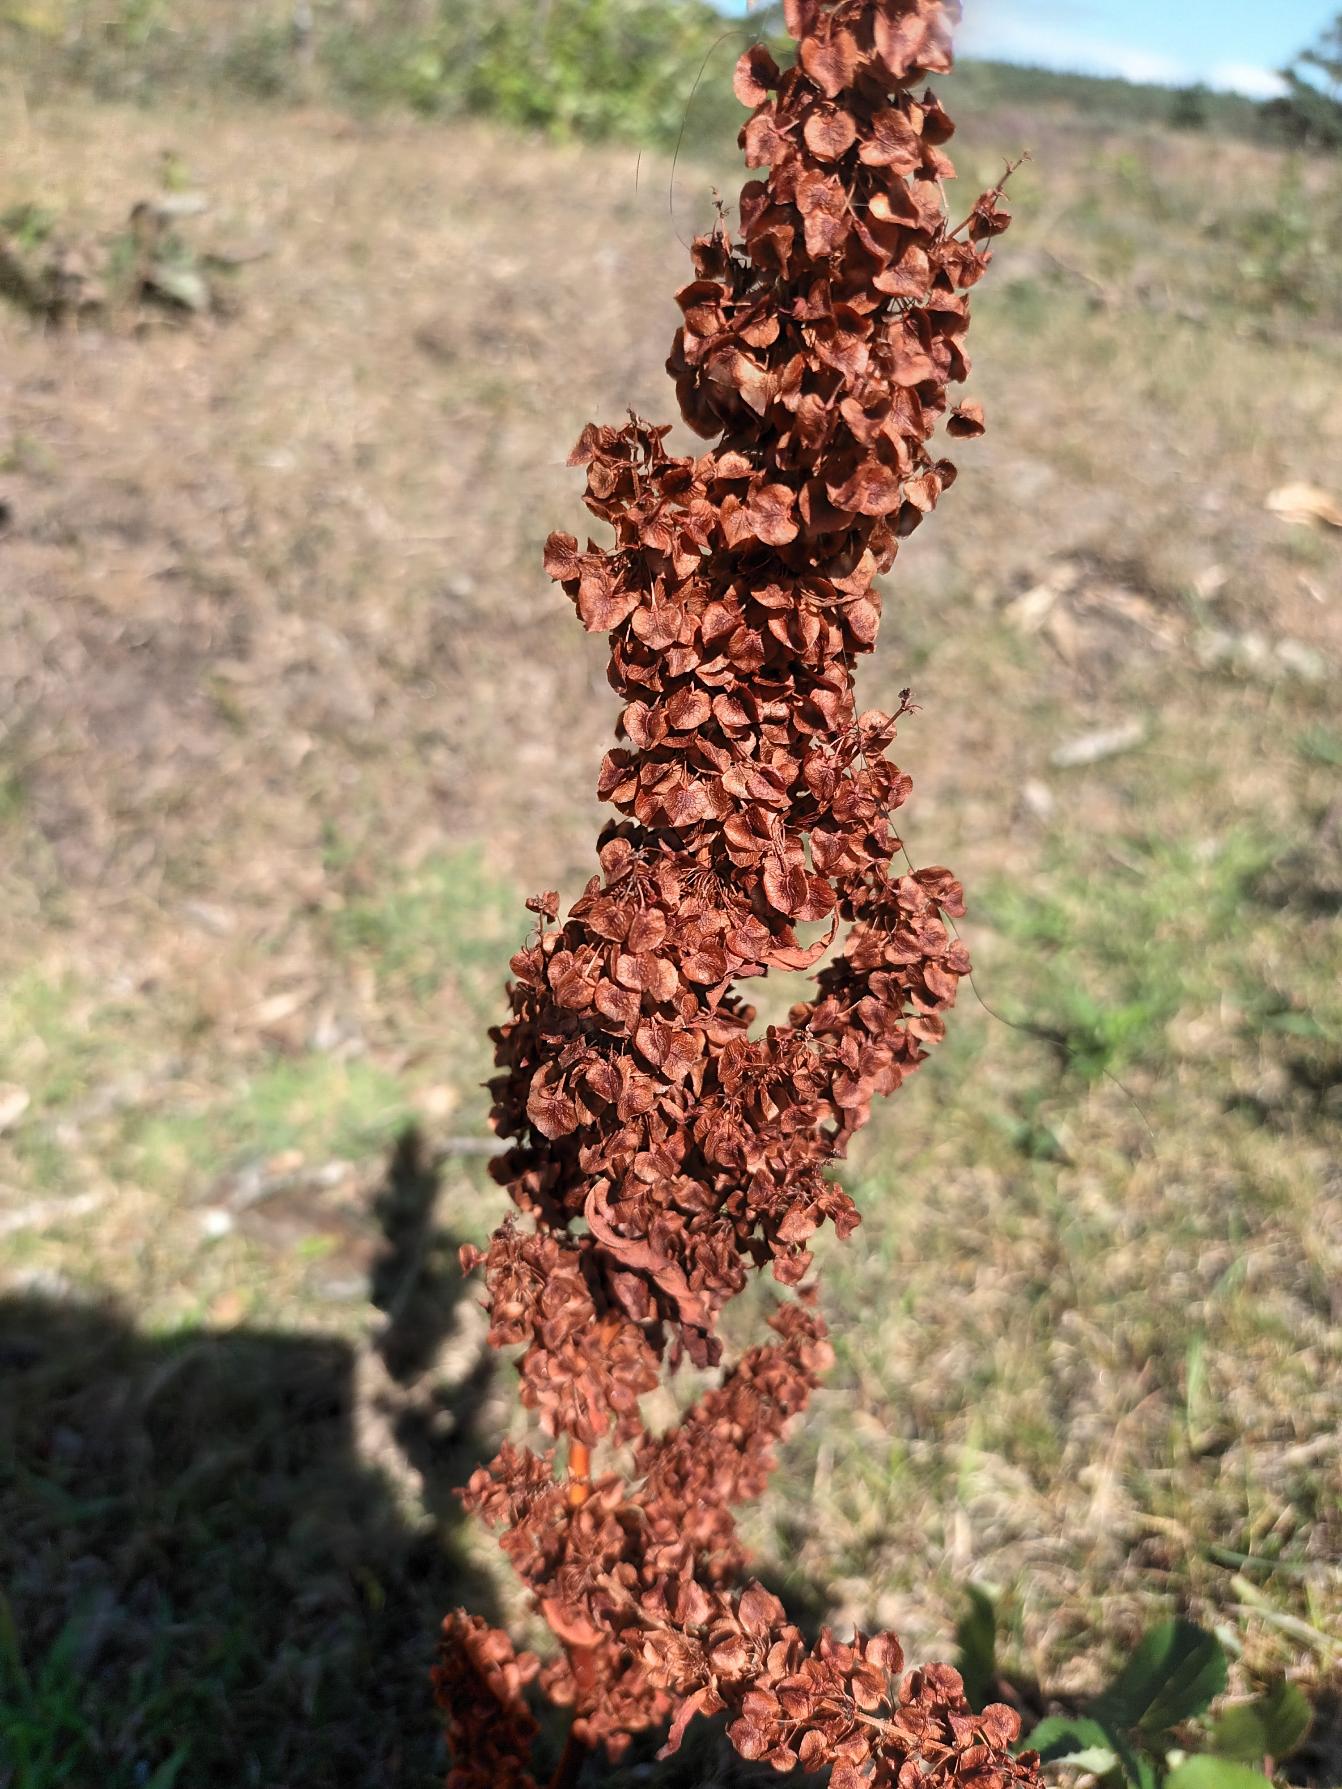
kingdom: Plantae
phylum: Tracheophyta
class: Magnoliopsida
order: Caryophyllales
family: Polygonaceae
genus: Rumex
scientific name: Rumex longifolius
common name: By-skræppe
